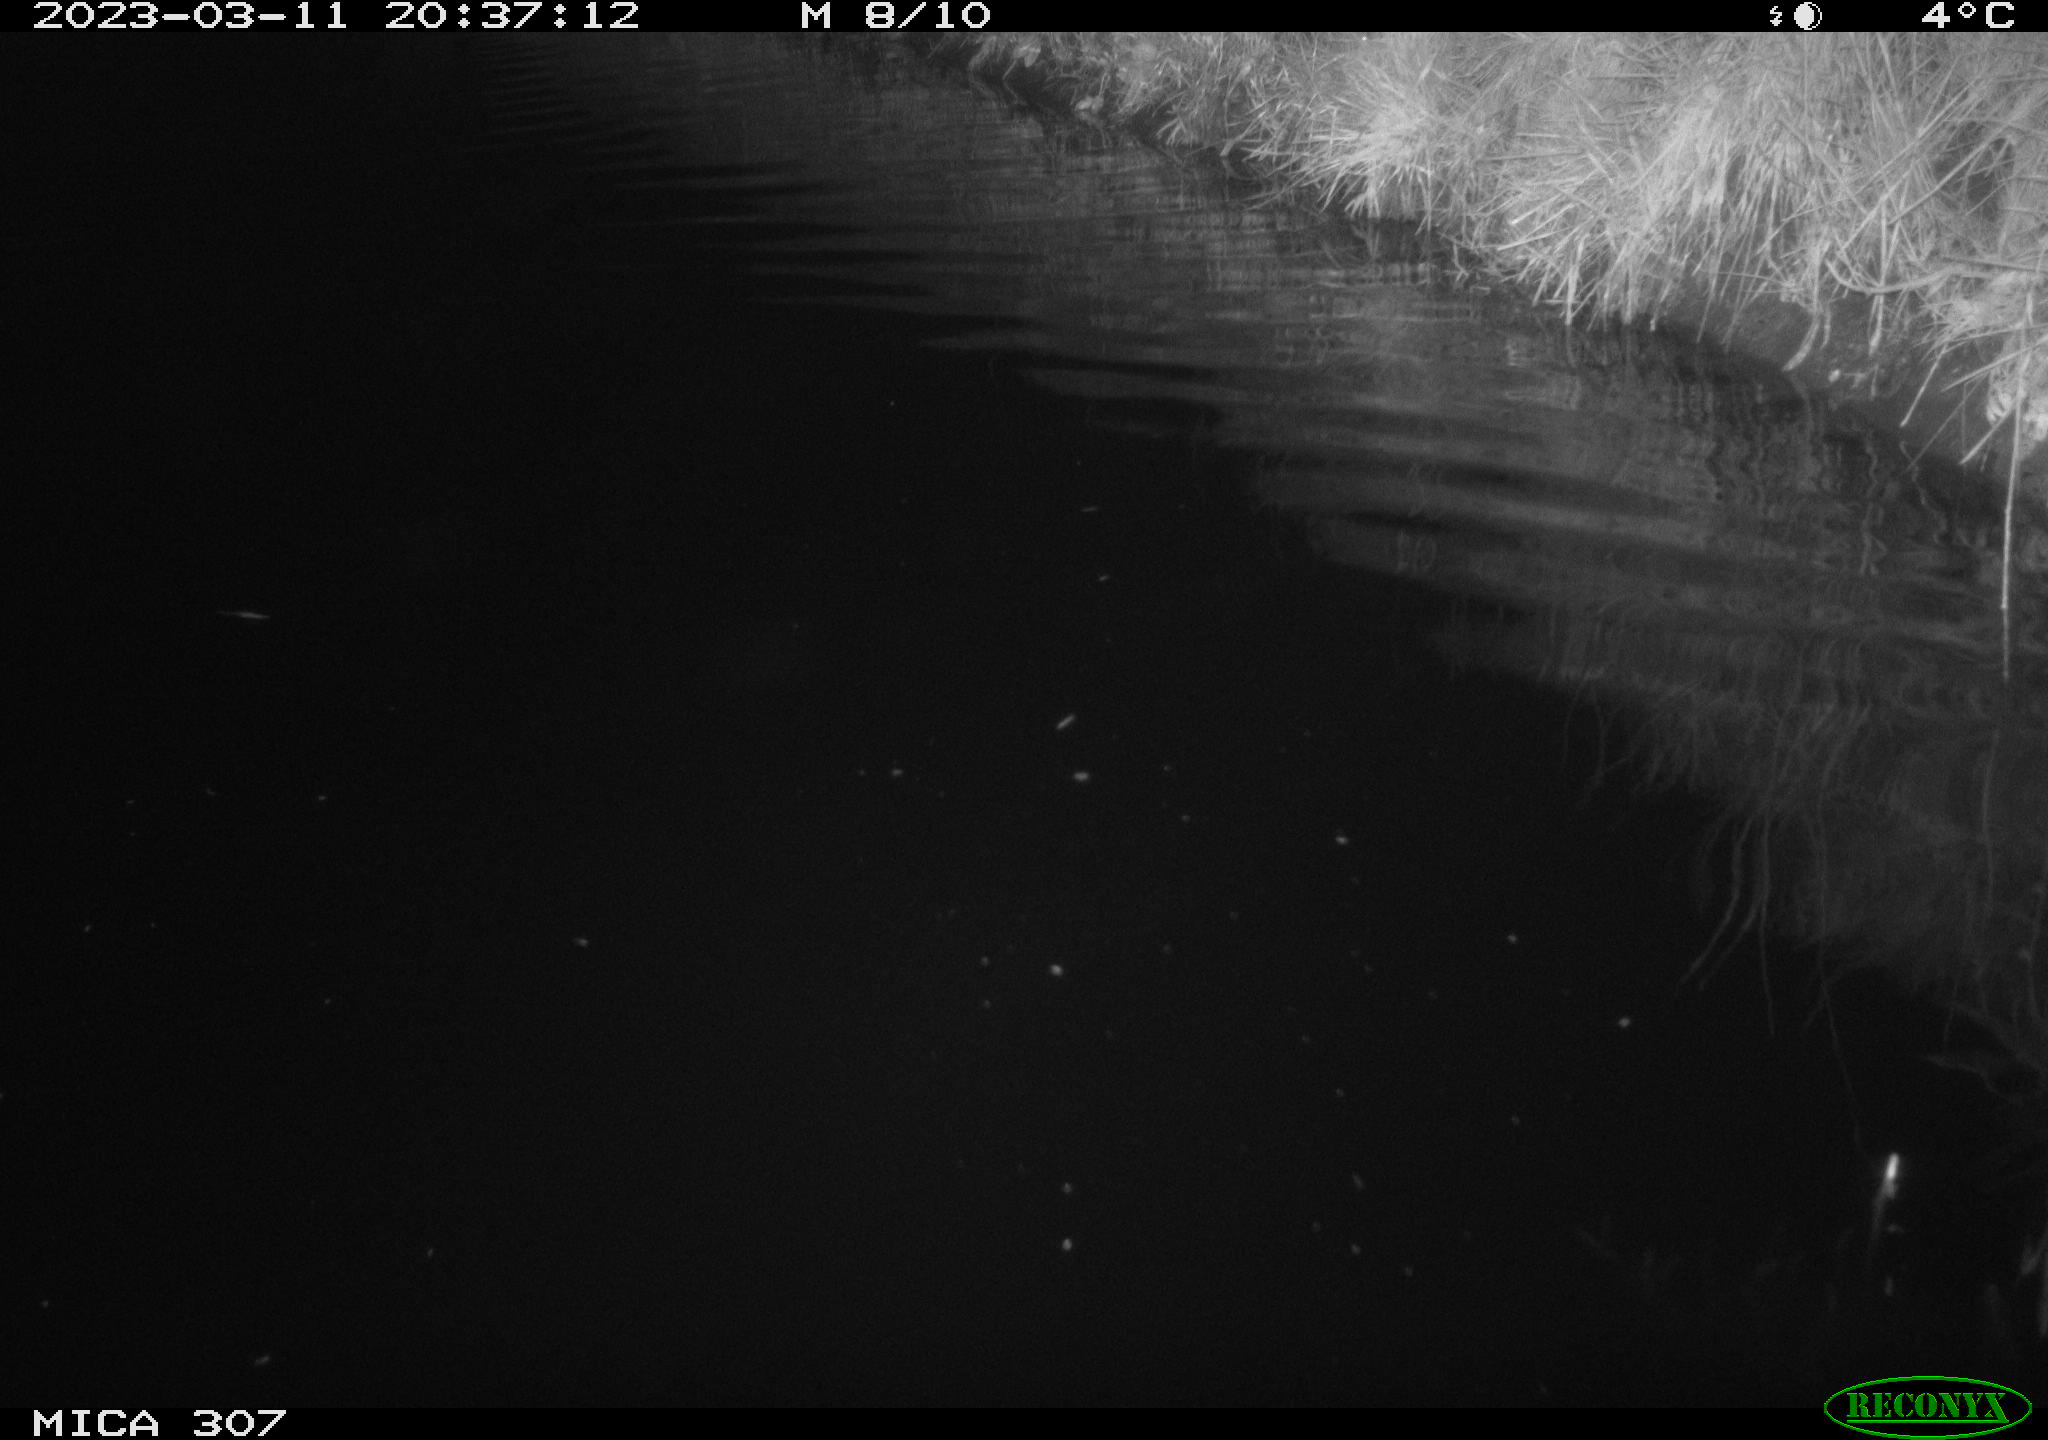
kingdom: Animalia
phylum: Chordata
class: Aves
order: Anseriformes
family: Anatidae
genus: Anas
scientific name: Anas
